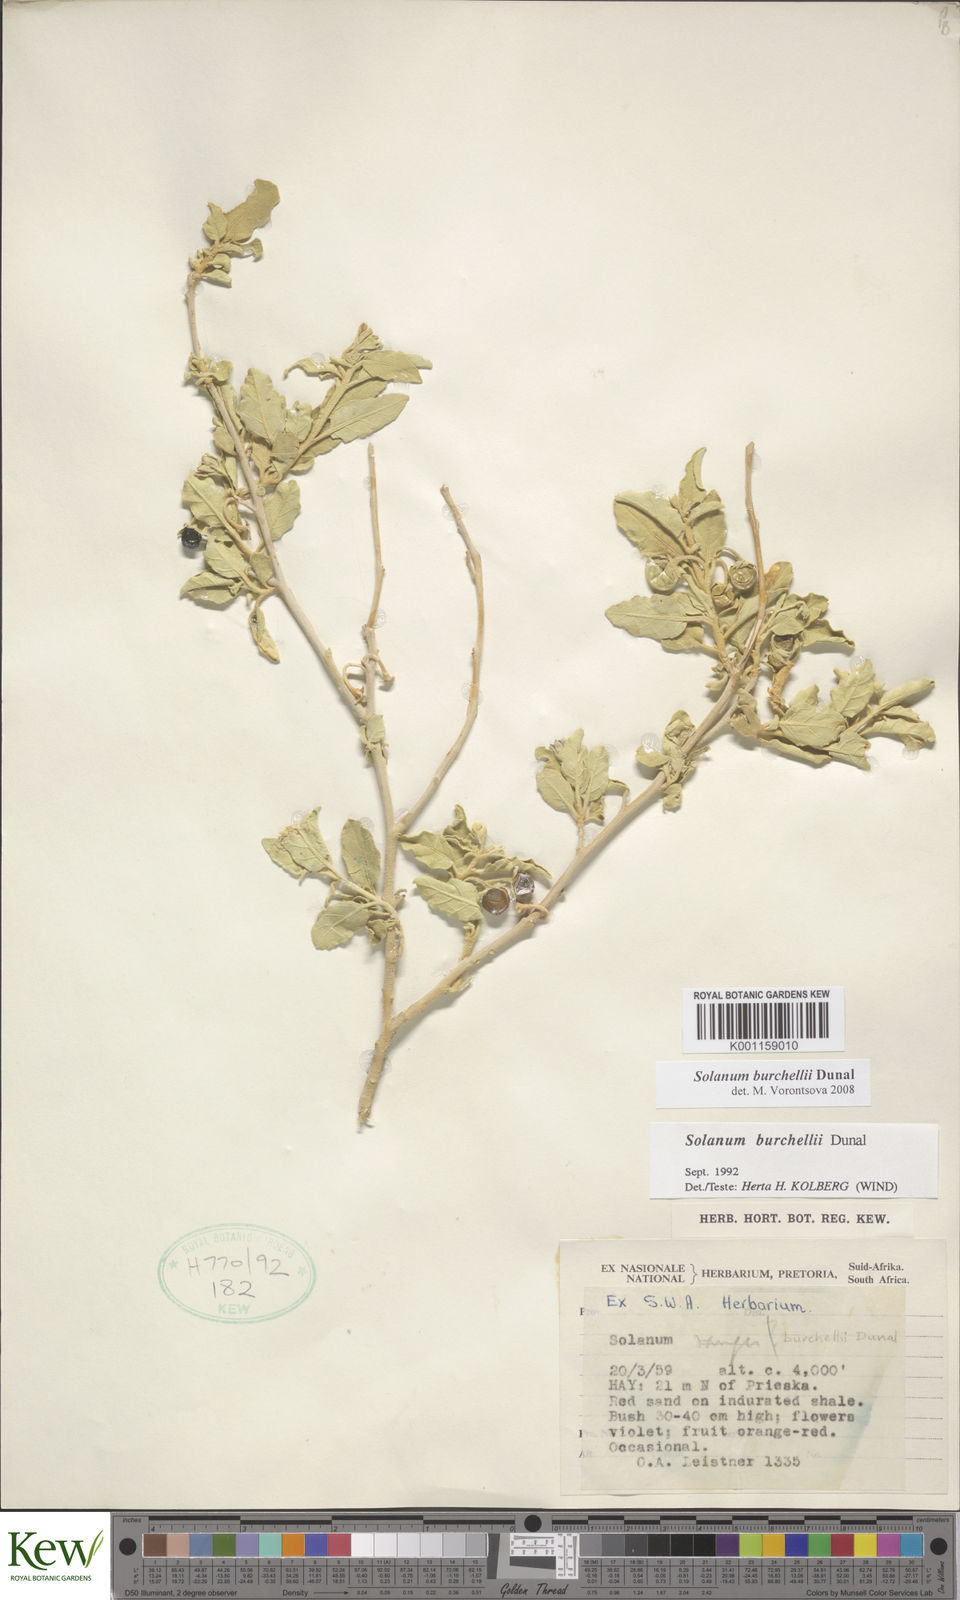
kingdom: Plantae
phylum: Tracheophyta
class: Magnoliopsida
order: Solanales
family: Solanaceae
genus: Solanum
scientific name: Solanum burchellii
